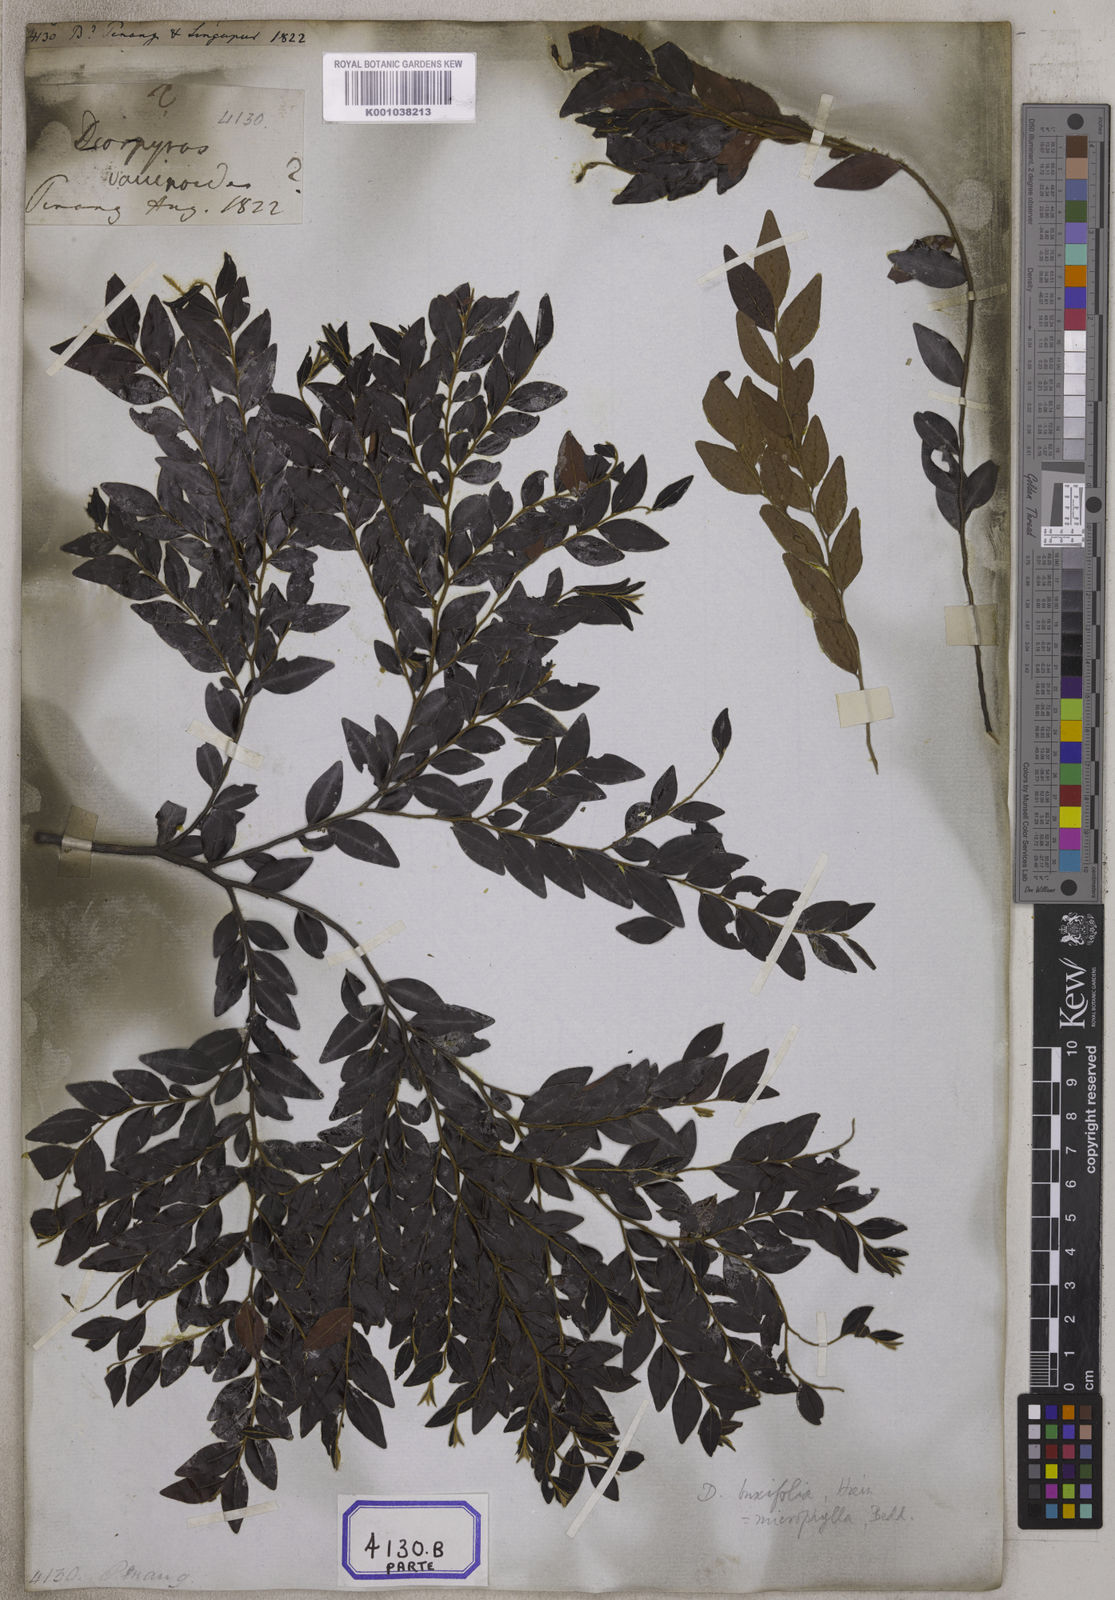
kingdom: Plantae
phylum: Tracheophyta
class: Magnoliopsida
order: Ericales
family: Ebenaceae
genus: Diospyros
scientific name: Diospyros vaccinioides
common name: Small persimmon
